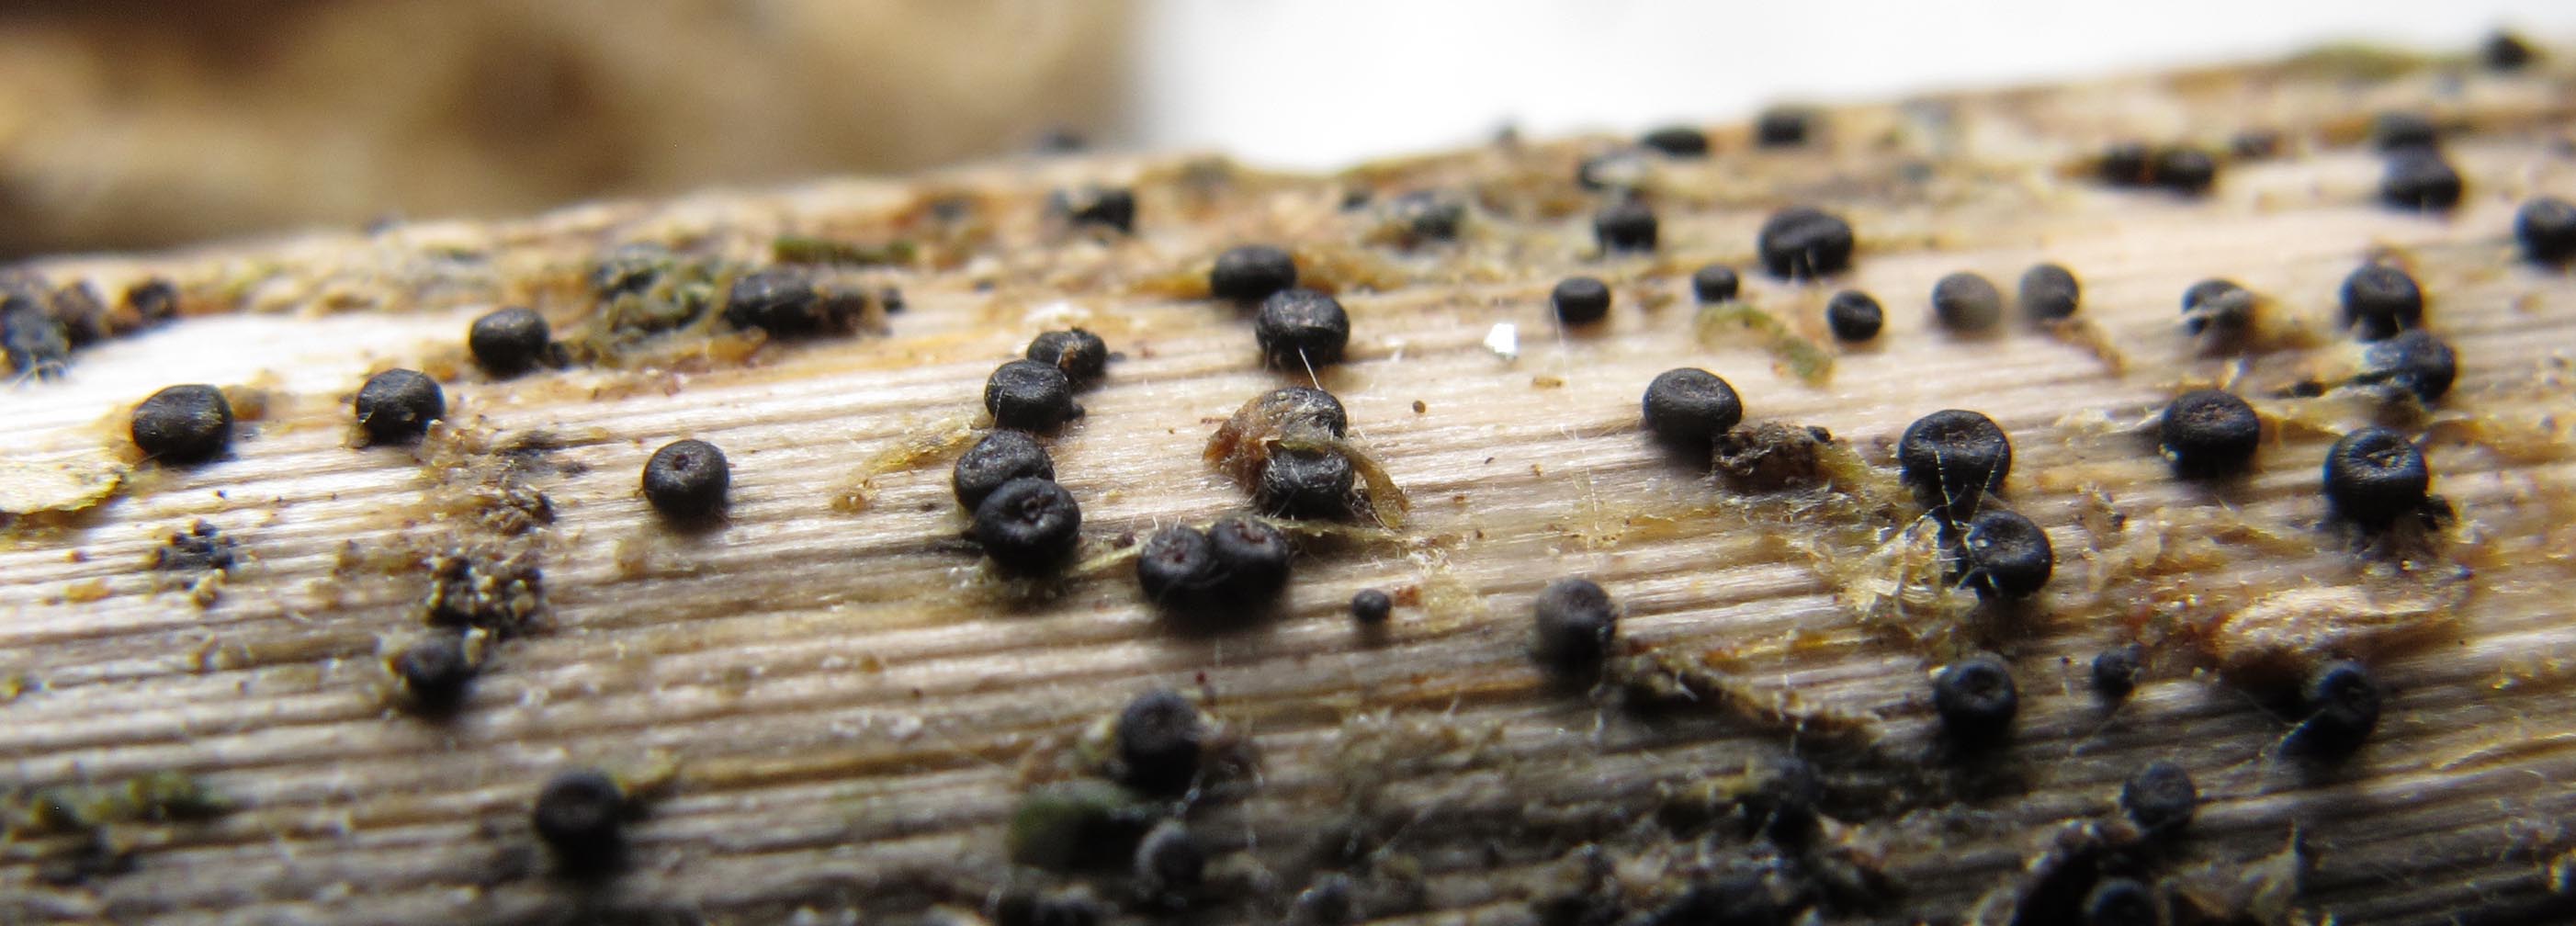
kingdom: Fungi
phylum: Ascomycota
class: Leotiomycetes
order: Helotiales
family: Heterosphaeriaceae
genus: Heterosphaeria
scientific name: Heterosphaeria
